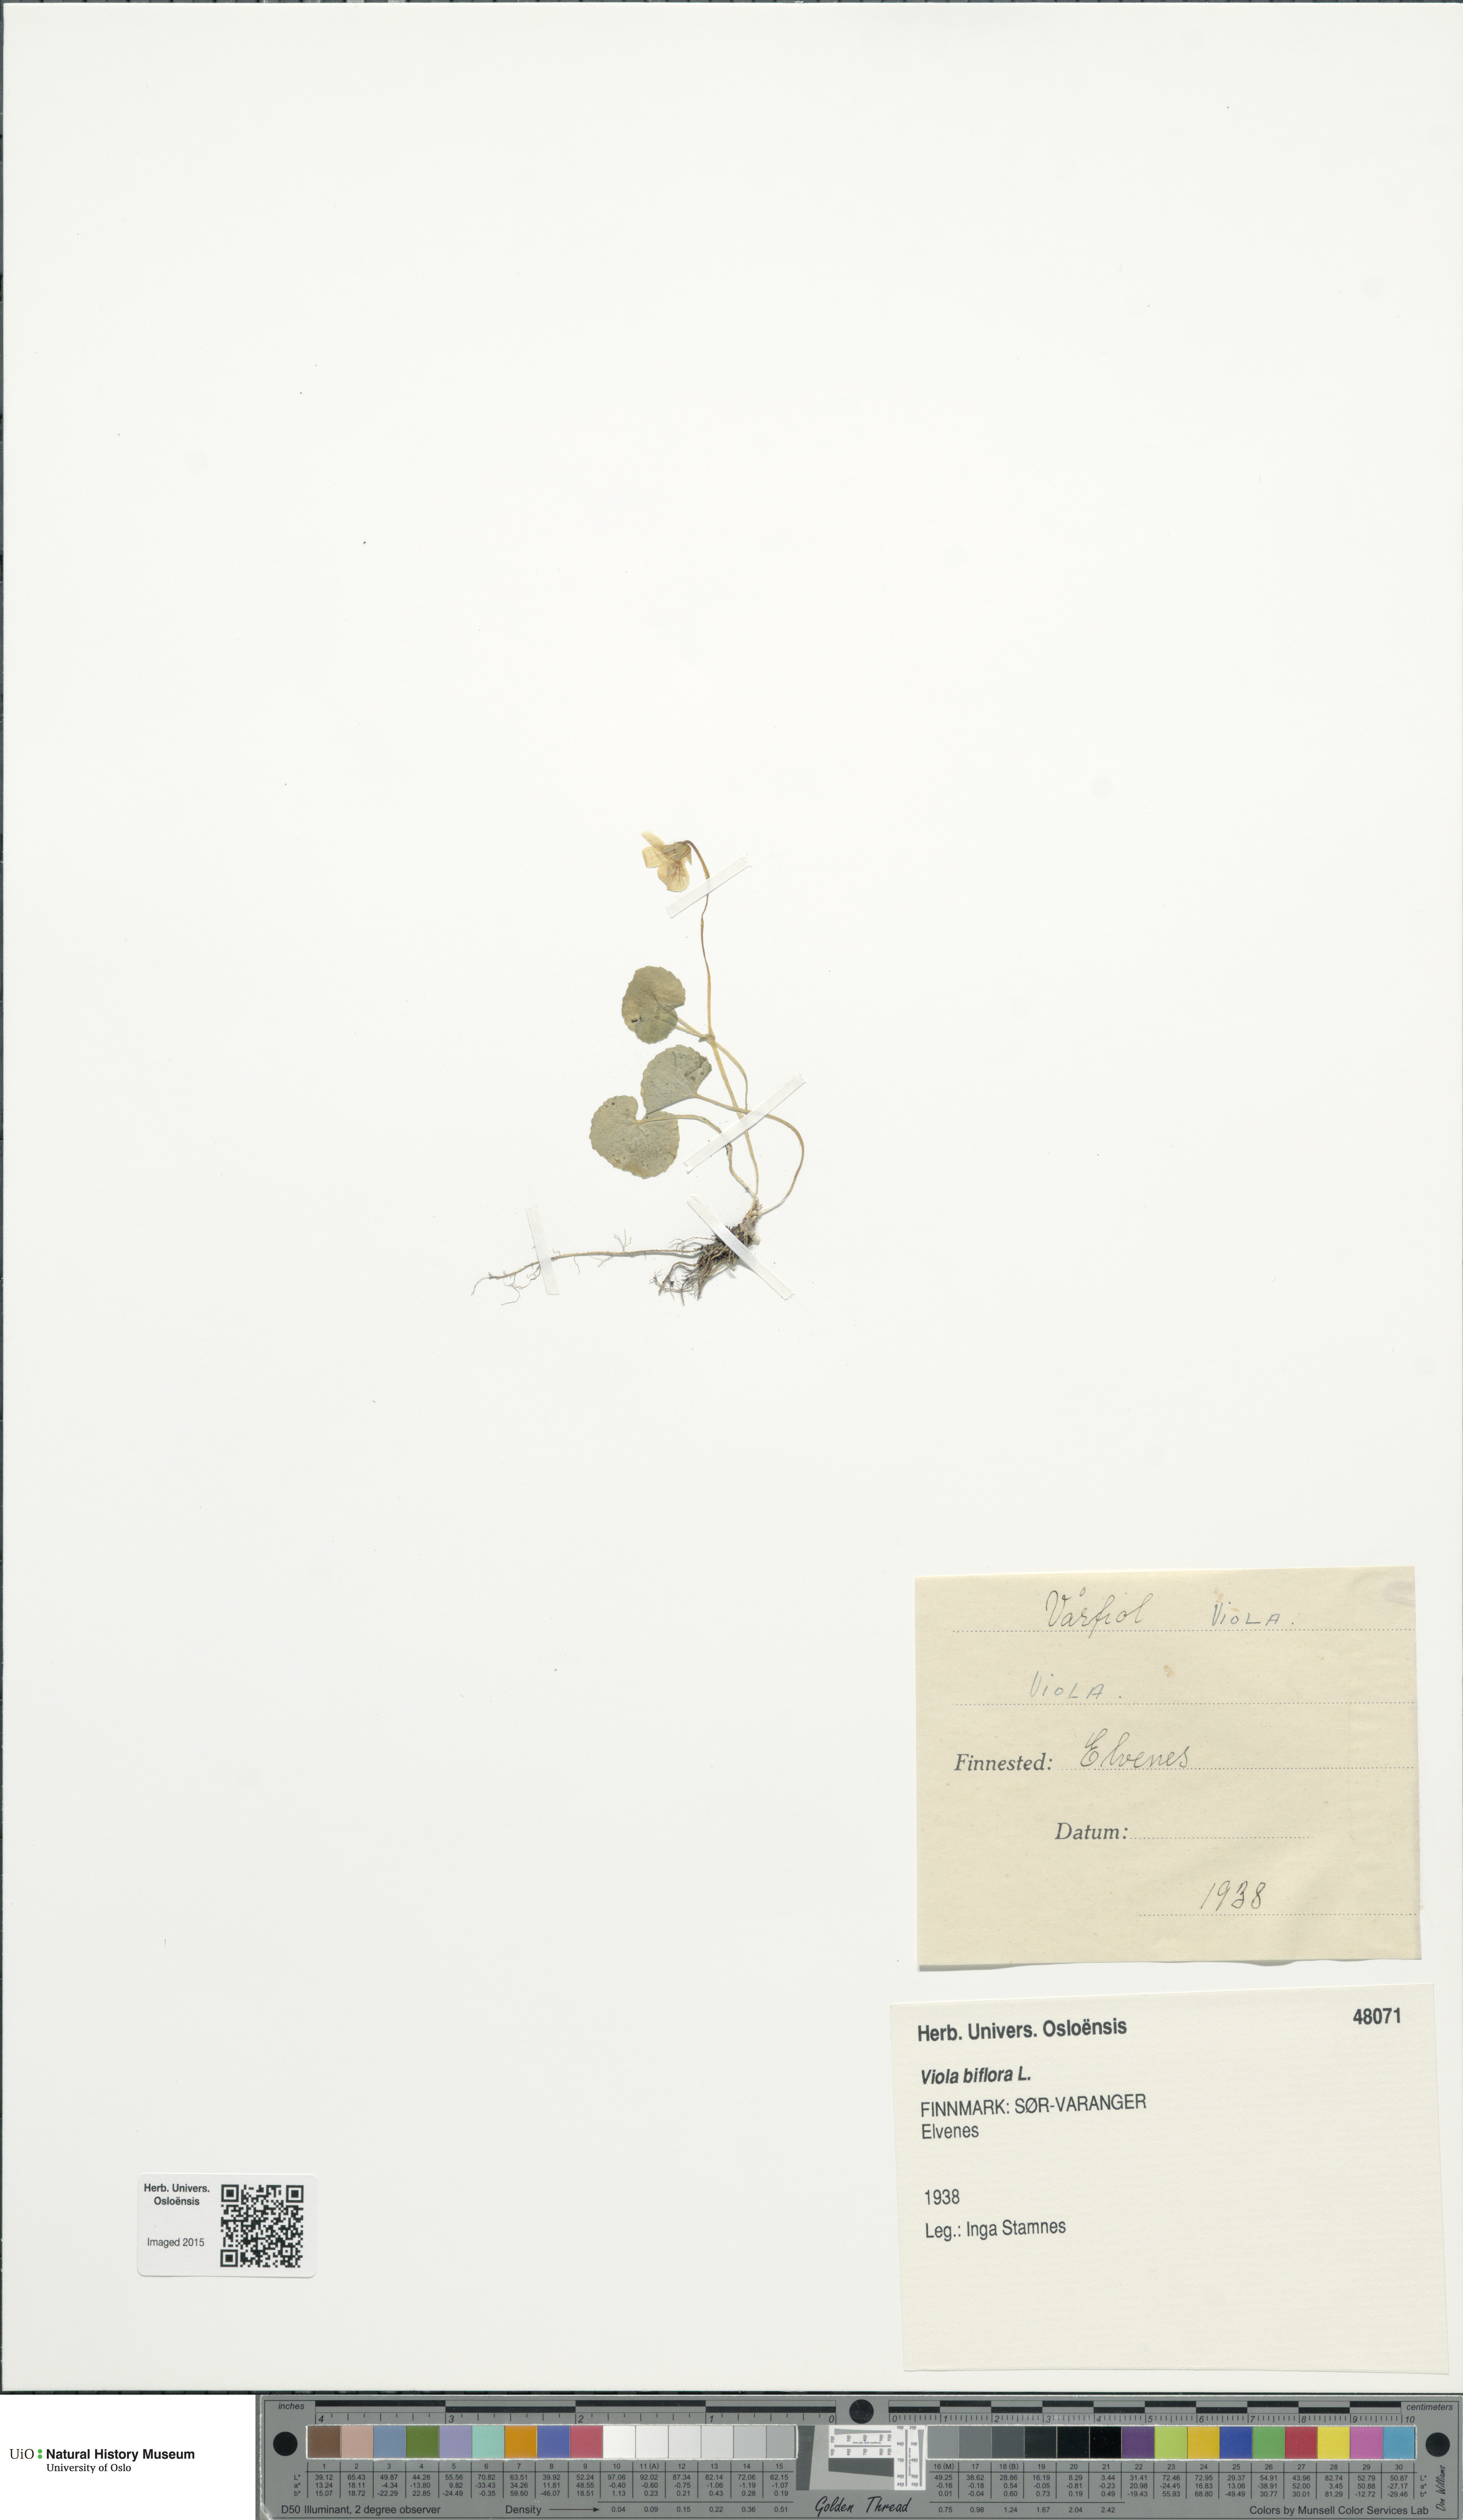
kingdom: Plantae
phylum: Tracheophyta
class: Magnoliopsida
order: Malpighiales
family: Violaceae
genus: Viola
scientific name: Viola biflora
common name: Alpine yellow violet
